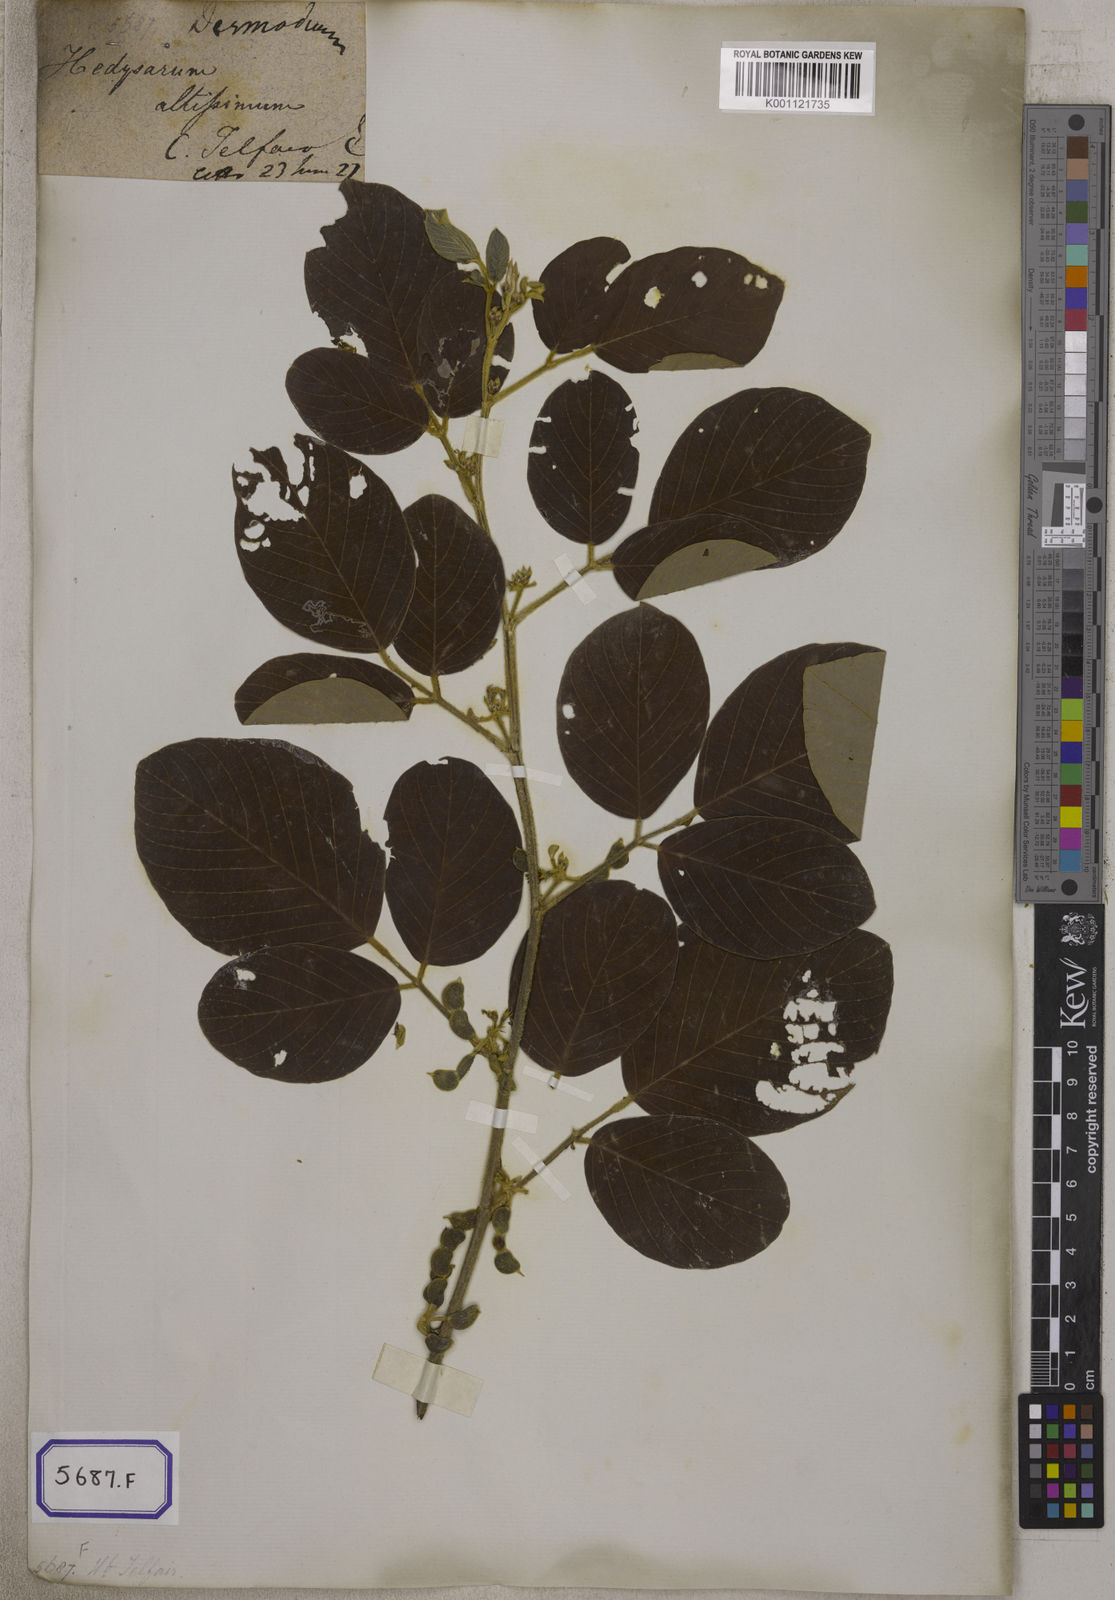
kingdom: Plantae
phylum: Tracheophyta
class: Magnoliopsida
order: Fabales
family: Fabaceae
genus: Dendrolobium
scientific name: Dendrolobium umbellatum
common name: Horsebush
